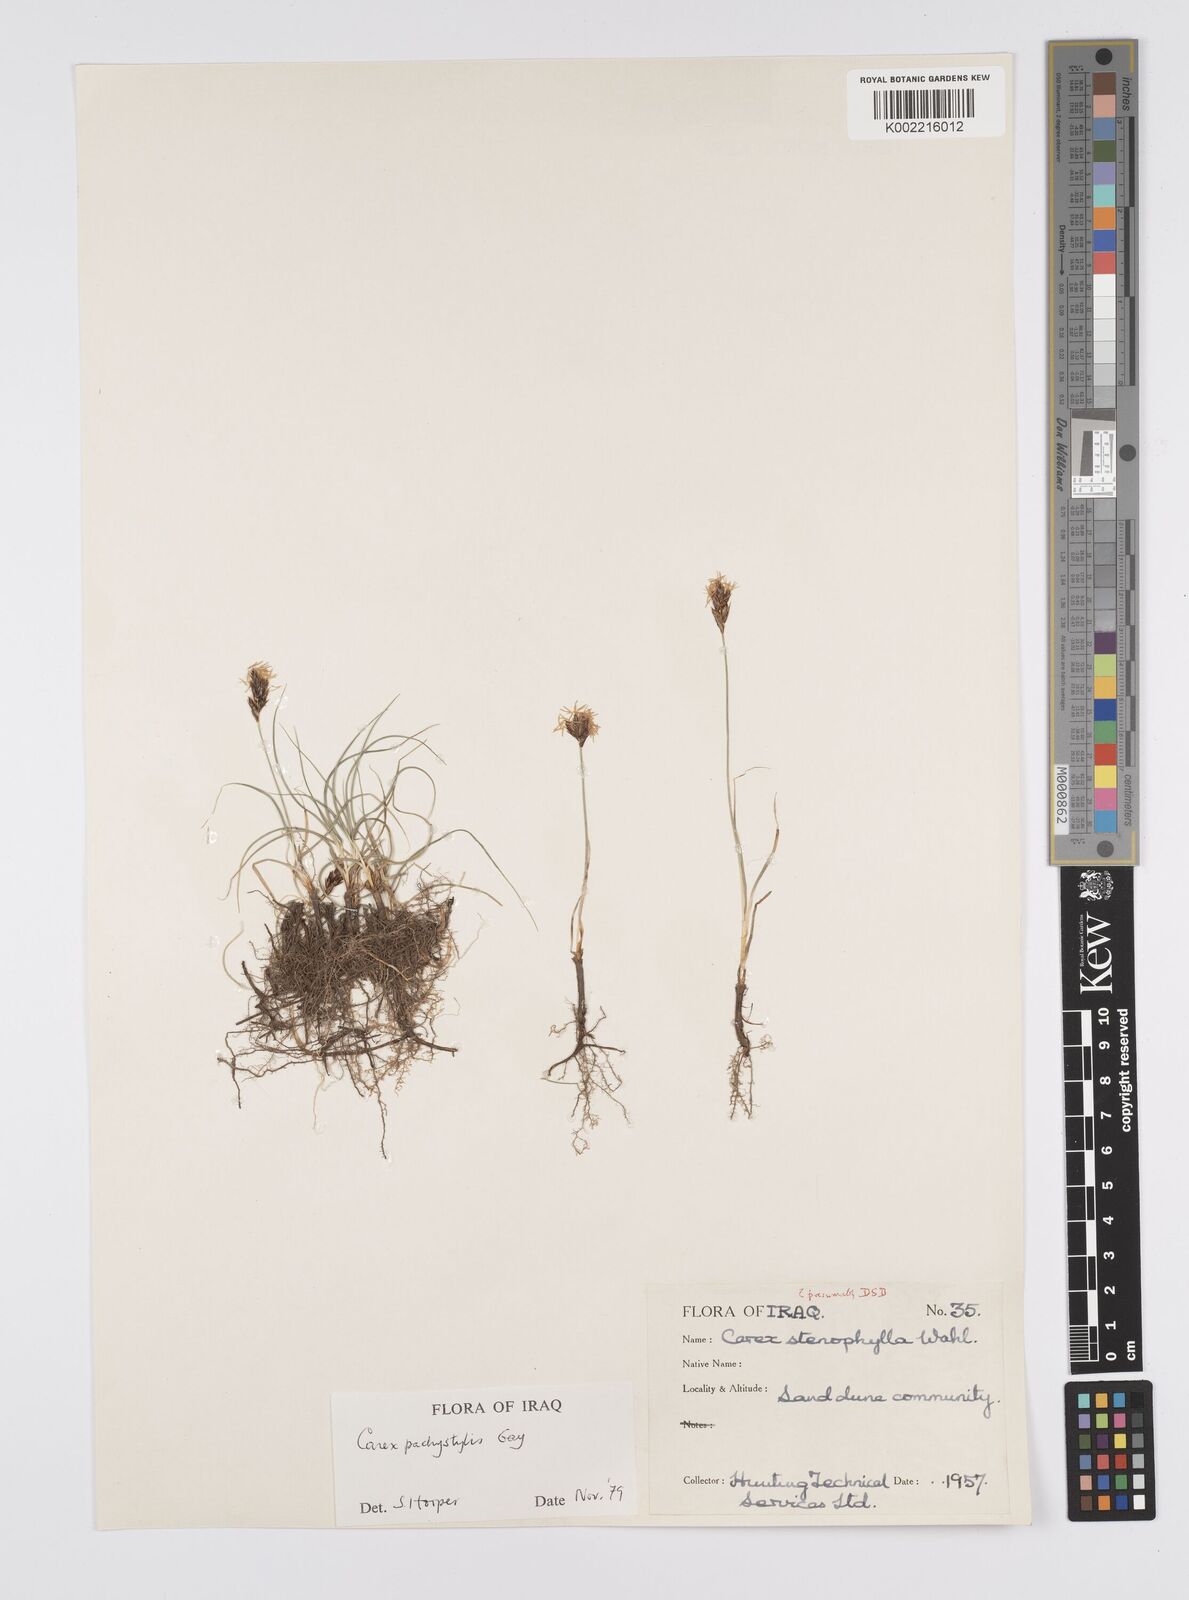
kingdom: Plantae
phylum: Tracheophyta
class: Liliopsida
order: Poales
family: Cyperaceae
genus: Carex
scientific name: Carex pachystylis
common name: Thick-stem sedge
